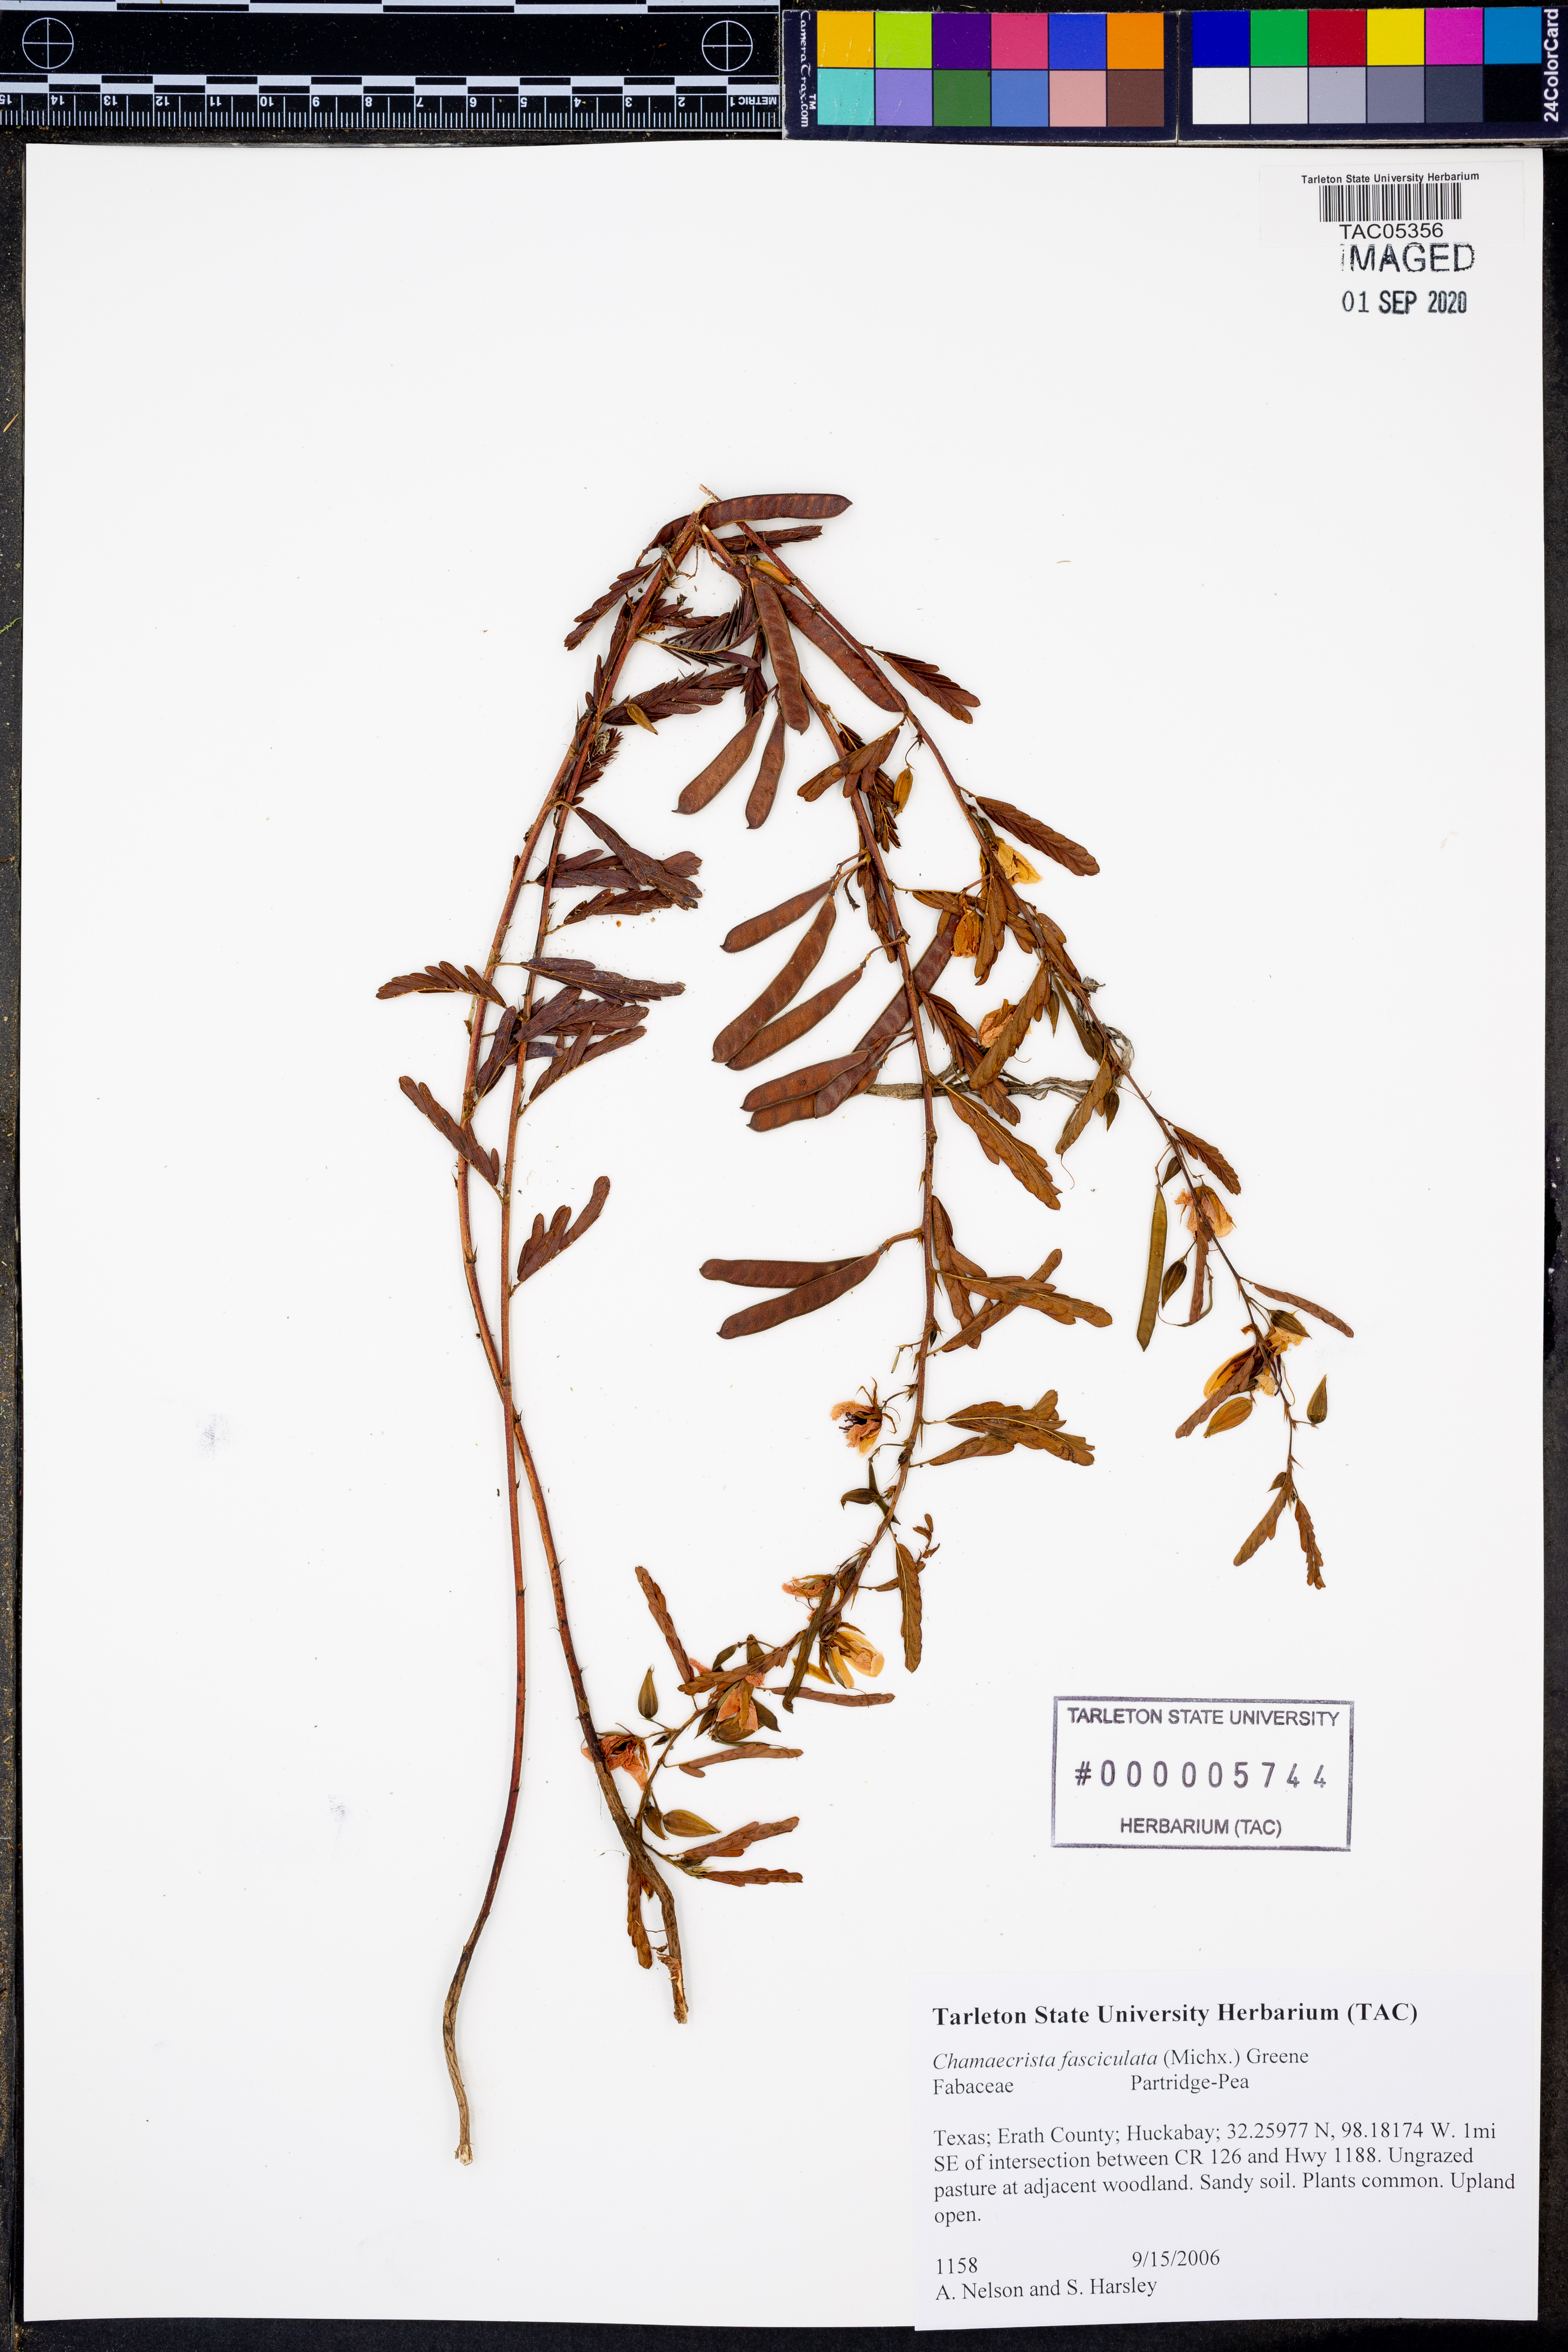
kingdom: Plantae
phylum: Tracheophyta
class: Magnoliopsida
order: Fabales
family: Fabaceae
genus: Chamaecrista
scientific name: Chamaecrista fasciculata
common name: Golden cassia
